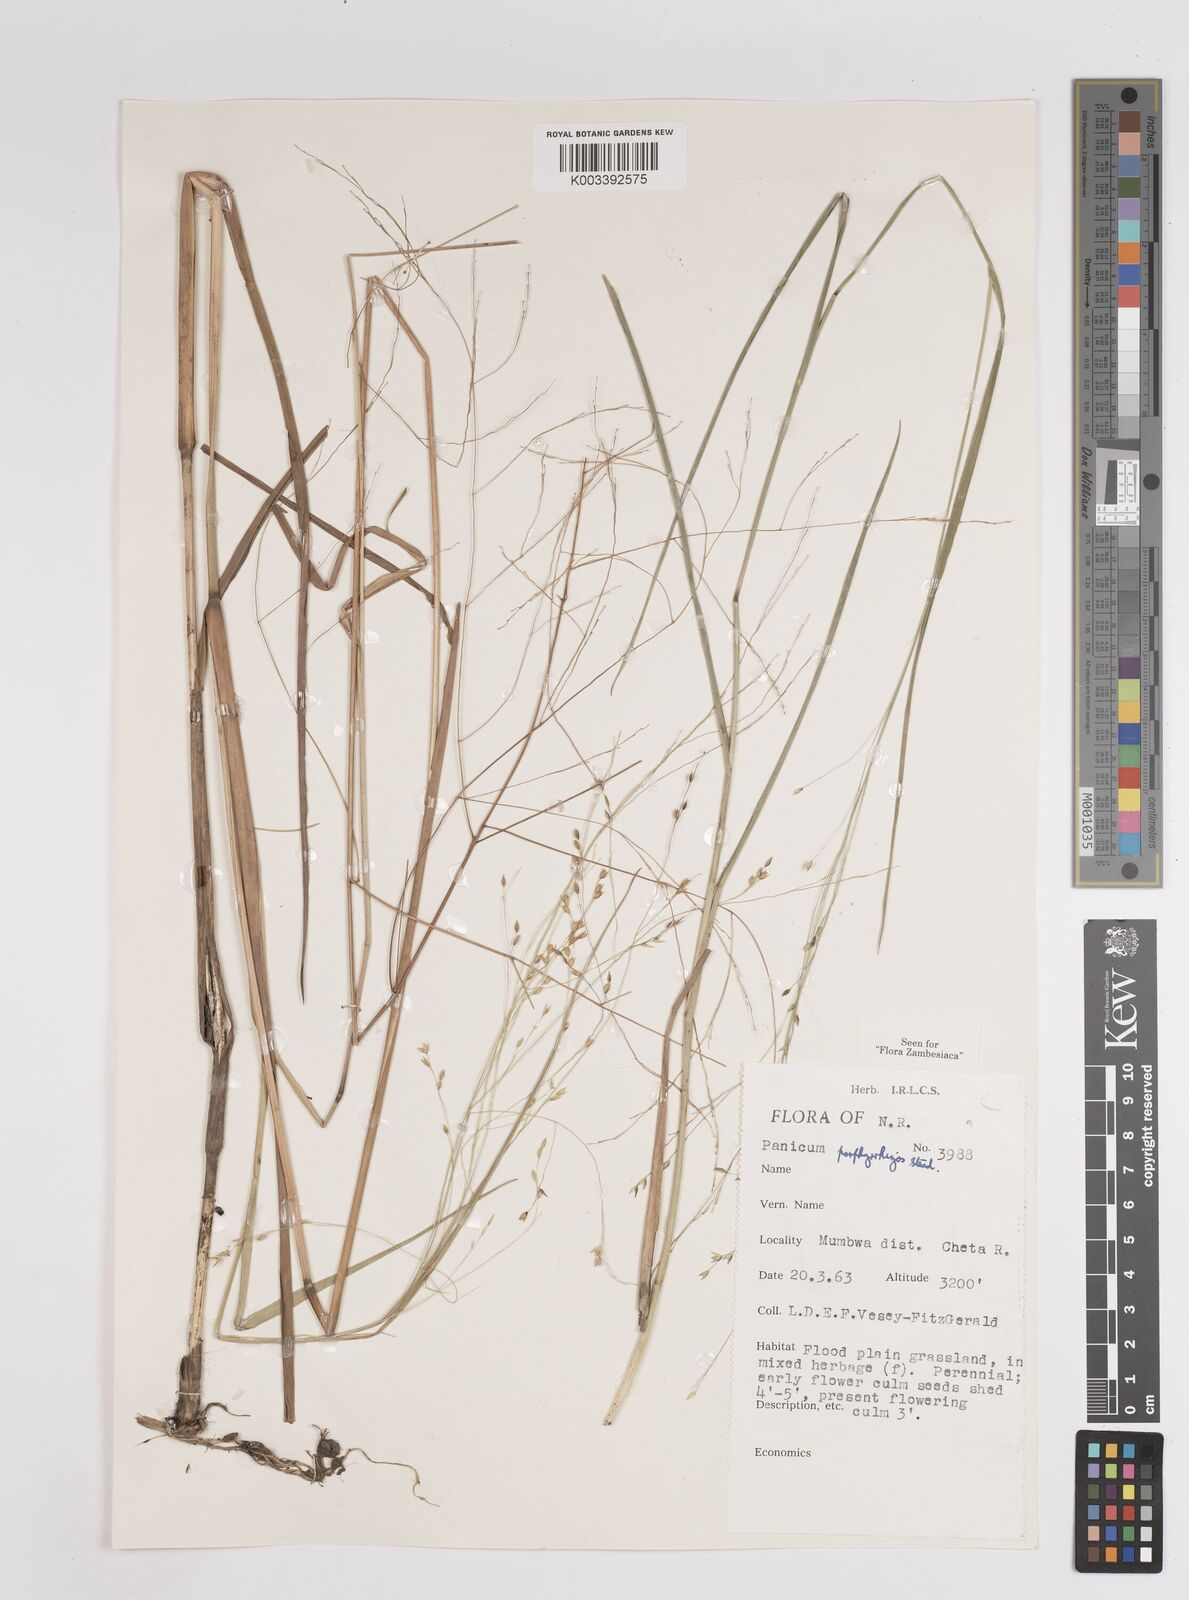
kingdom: Plantae
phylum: Tracheophyta
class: Liliopsida
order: Poales
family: Poaceae
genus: Panicum
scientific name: Panicum porphyrrhizos
